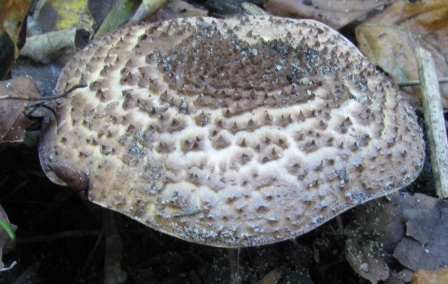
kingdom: Fungi
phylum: Basidiomycota
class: Agaricomycetes
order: Agaricales
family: Agaricaceae
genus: Echinoderma
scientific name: Echinoderma asperum
